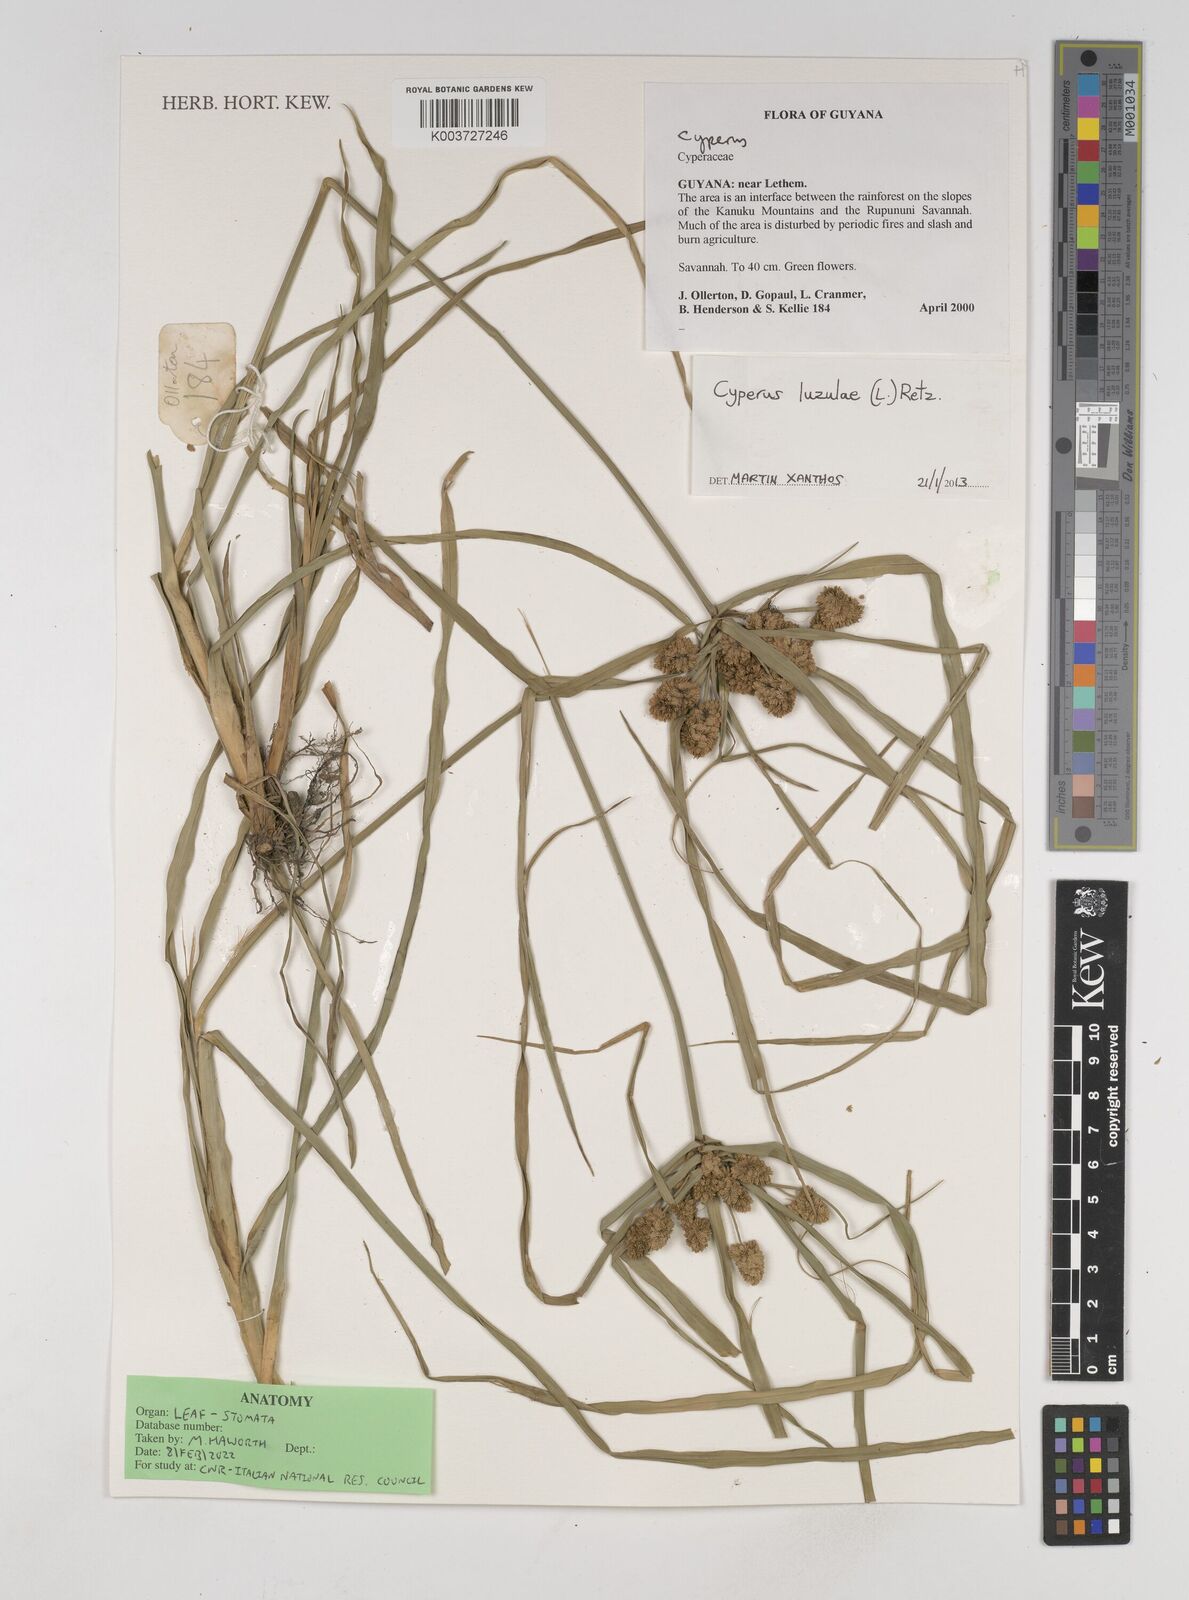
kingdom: Plantae
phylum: Tracheophyta
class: Liliopsida
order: Poales
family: Cyperaceae
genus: Cyperus
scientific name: Cyperus luzulae
